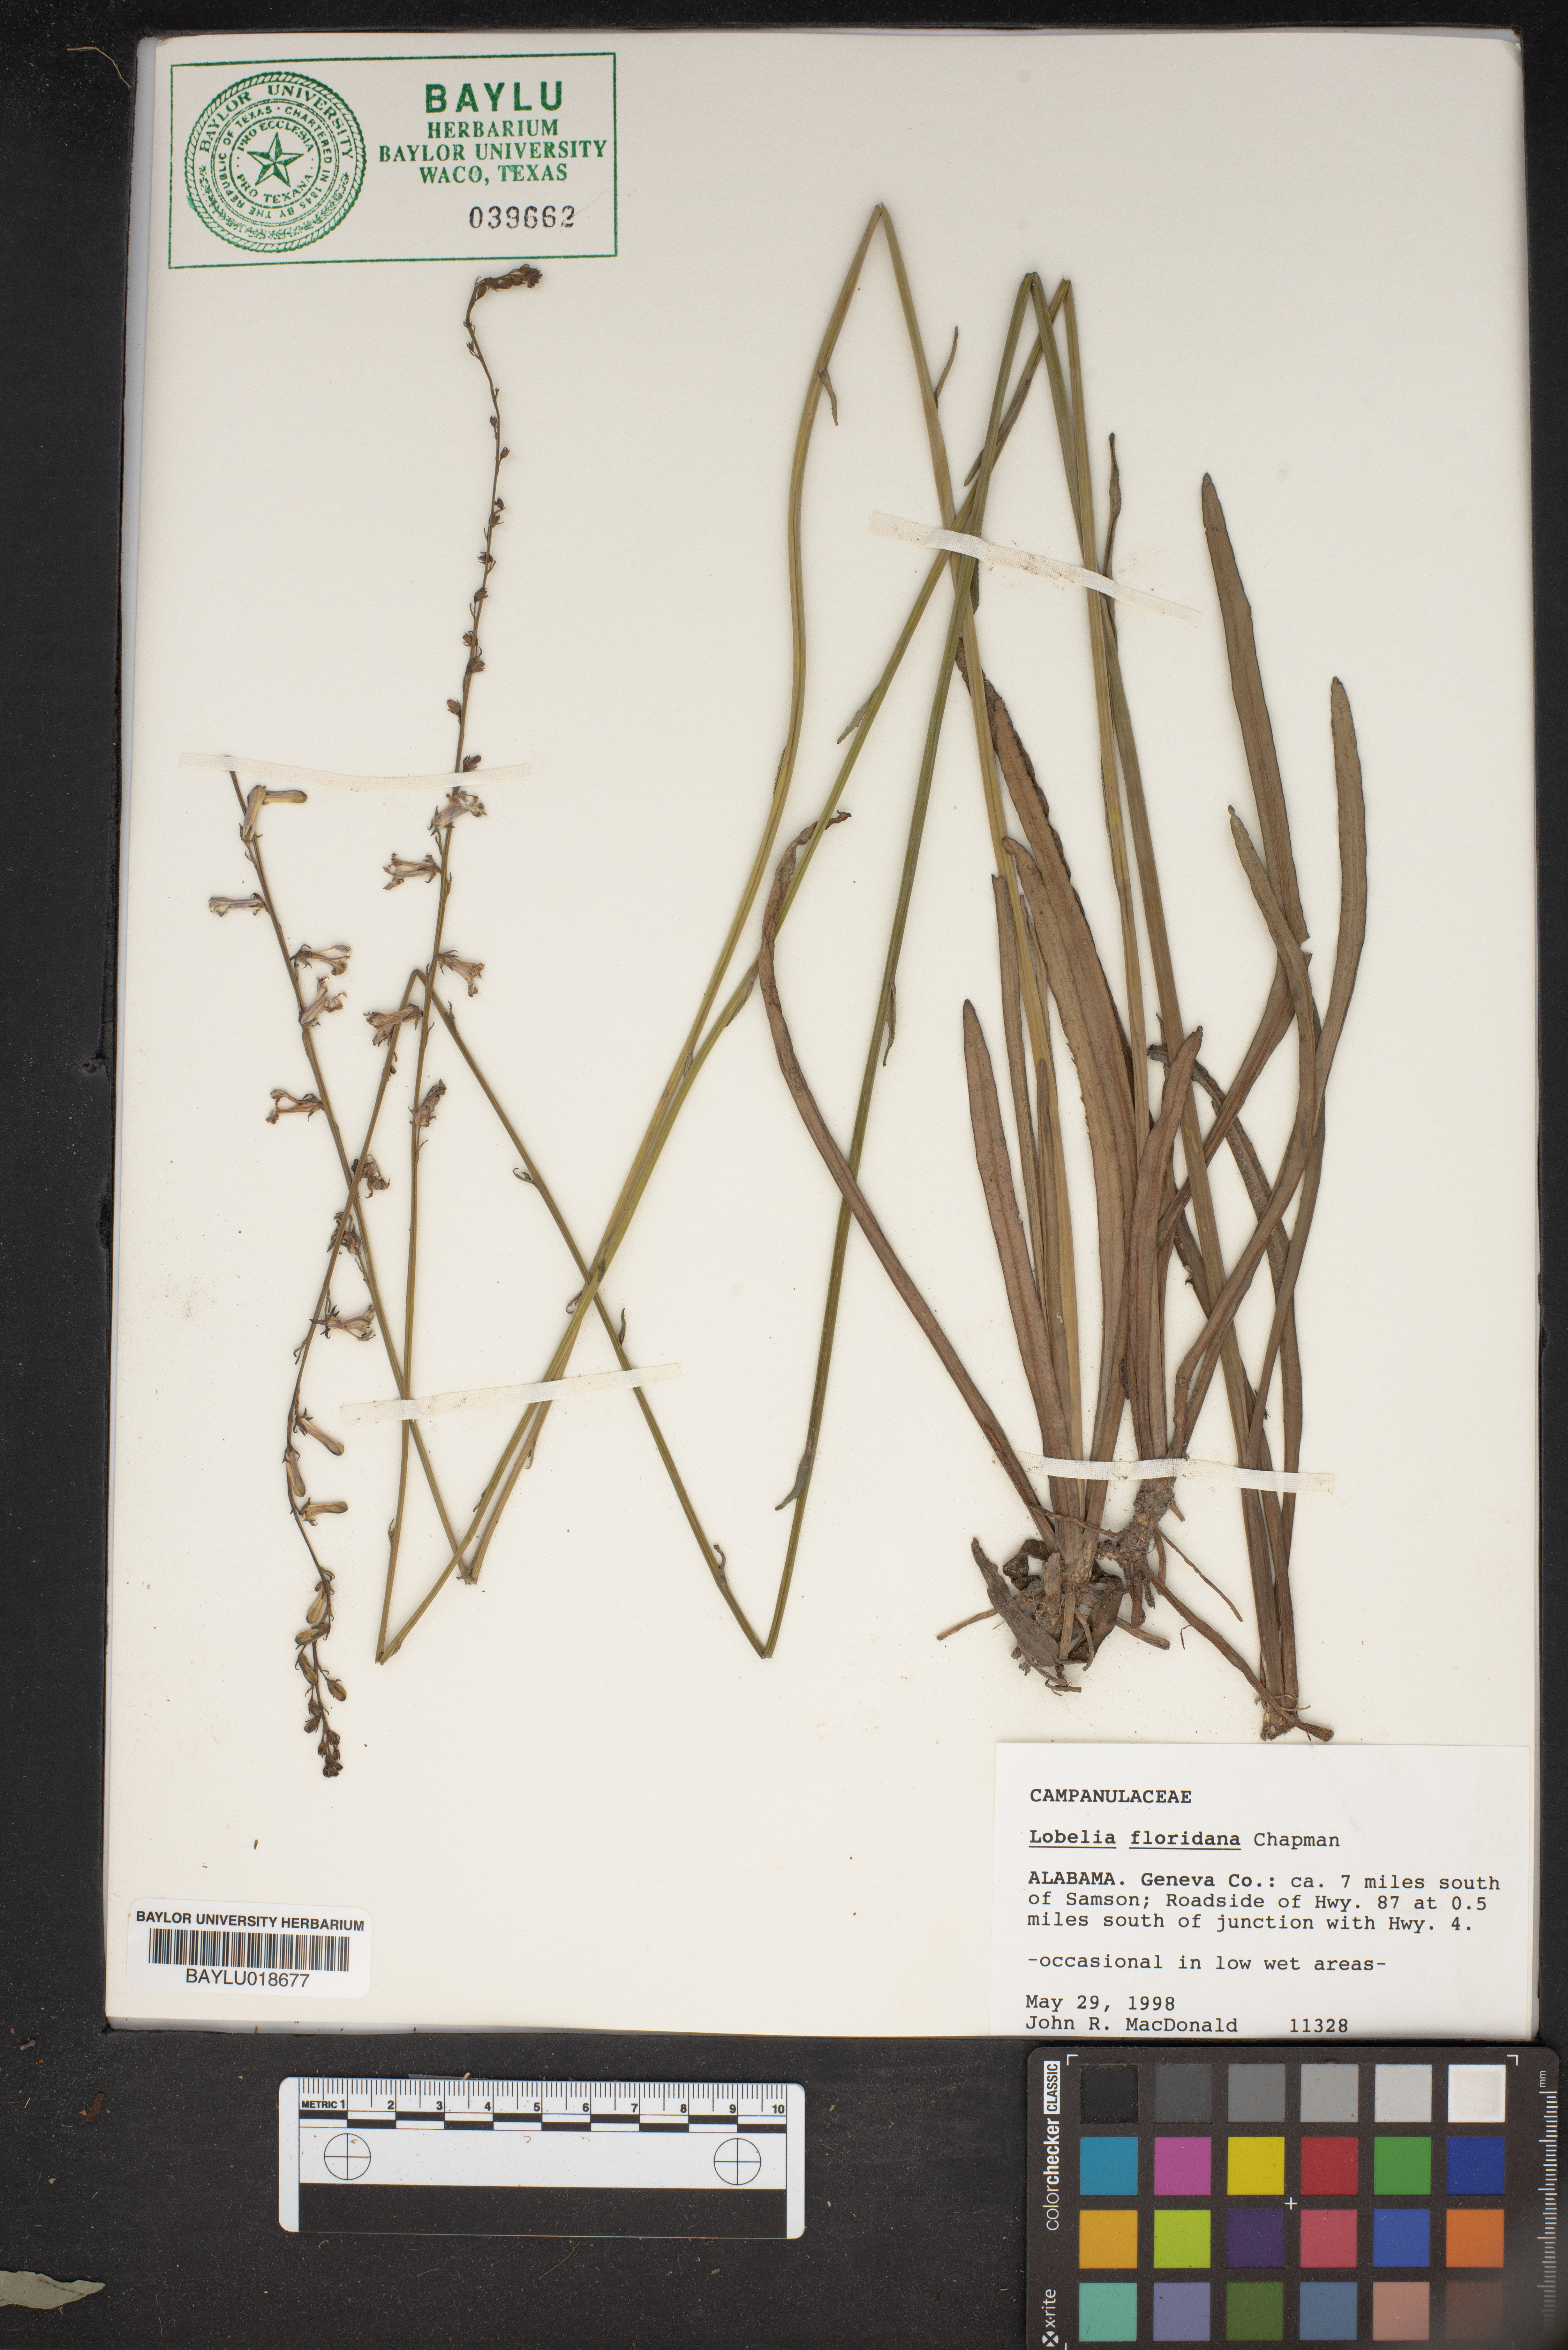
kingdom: Plantae
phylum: Tracheophyta
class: Magnoliopsida
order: Asterales
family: Campanulaceae
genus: Lobelia
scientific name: Lobelia floridana
